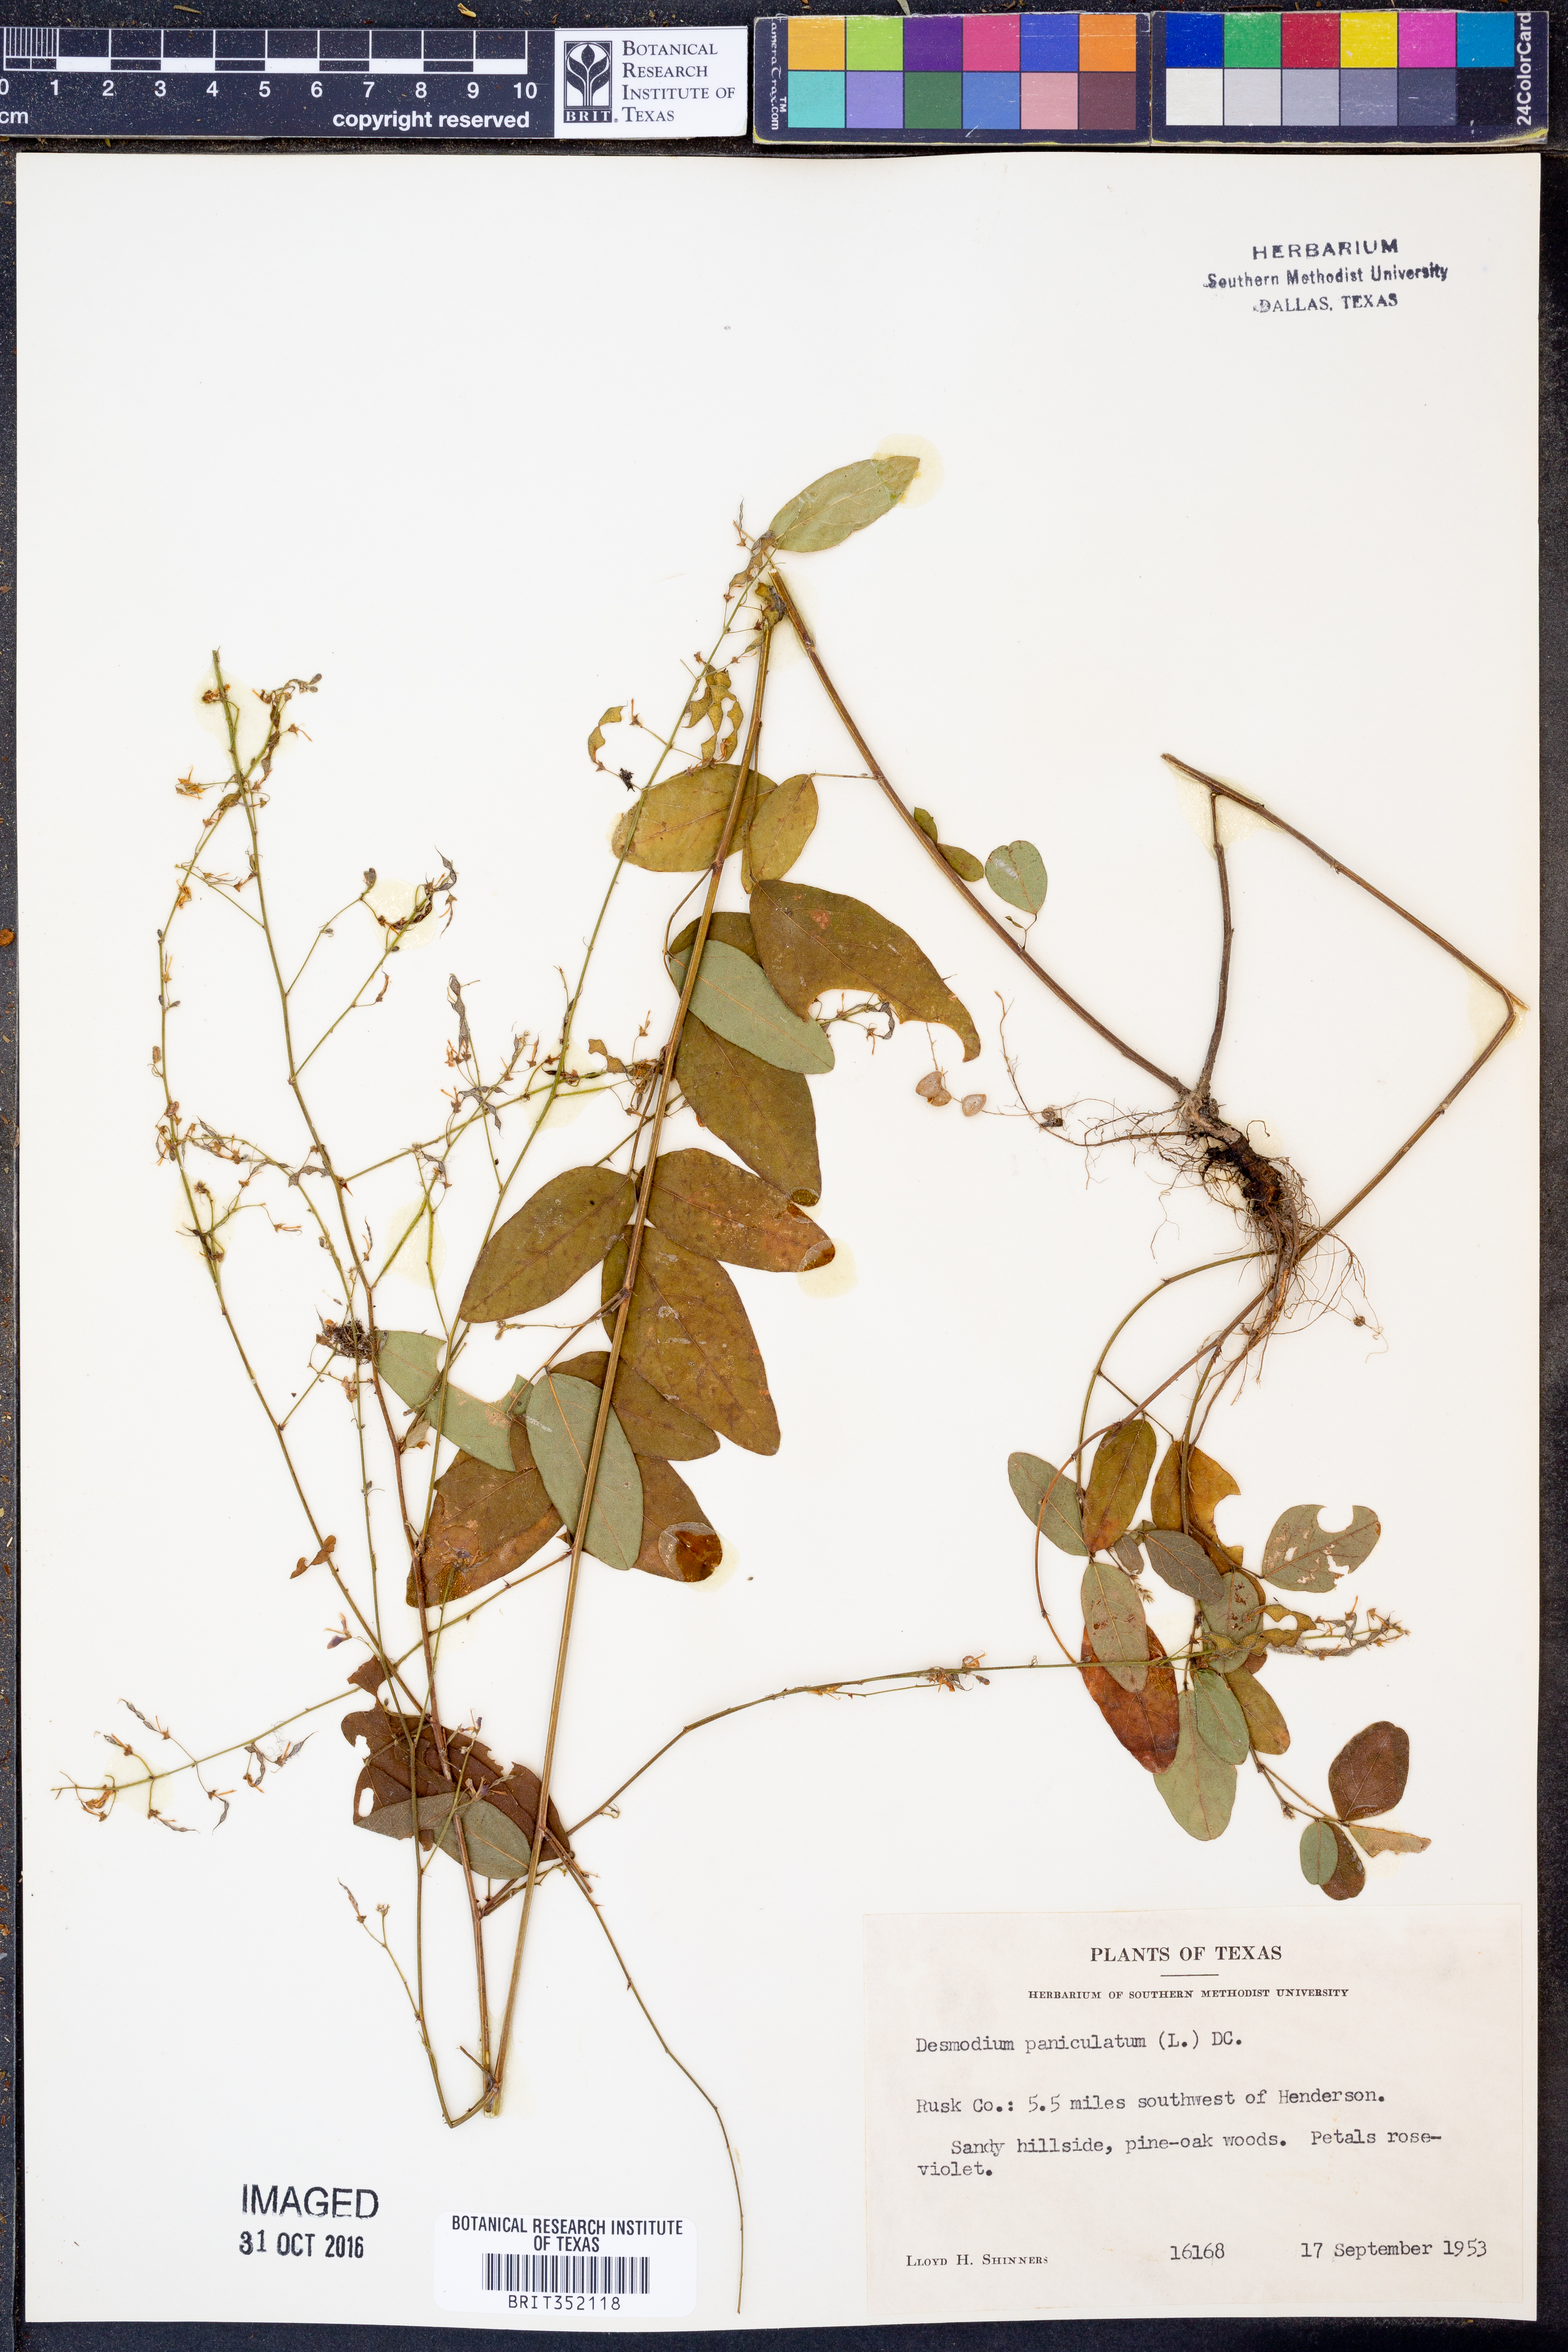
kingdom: Plantae
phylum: Tracheophyta
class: Magnoliopsida
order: Fabales
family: Fabaceae
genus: Hylodesmum
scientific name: Hylodesmum pauciflorum
